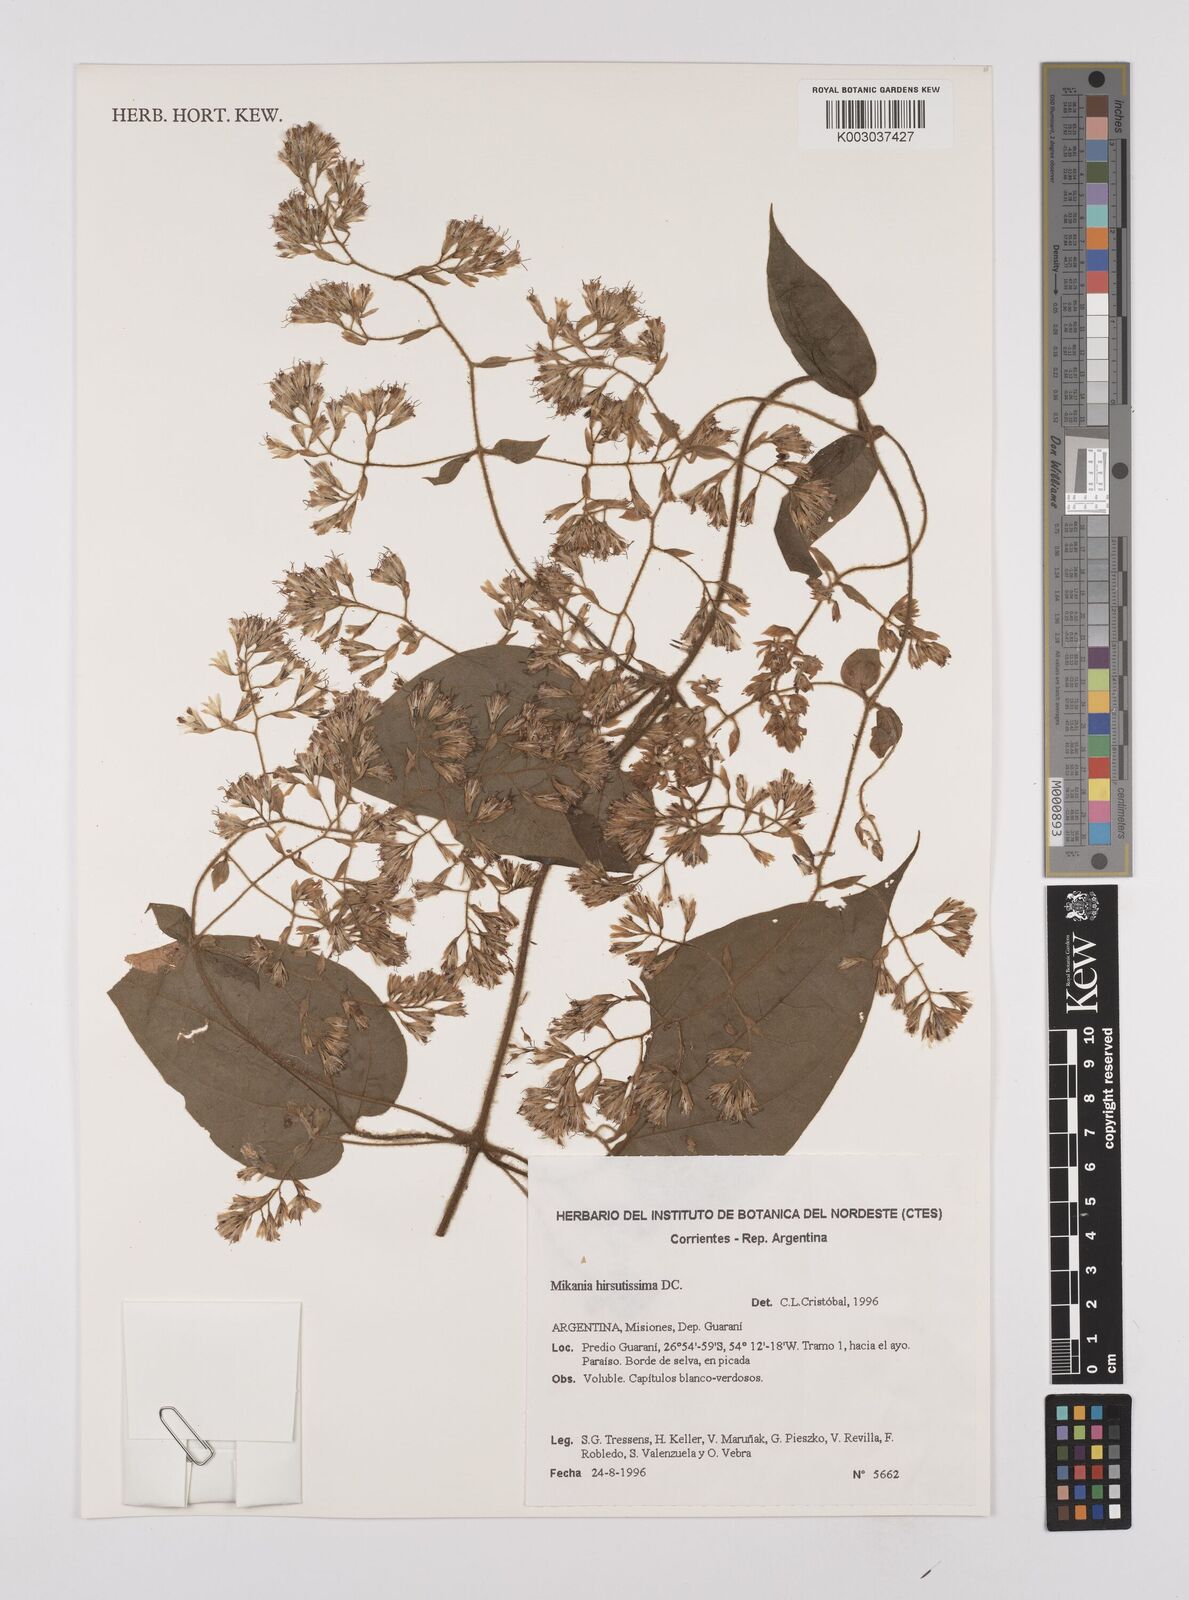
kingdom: Plantae
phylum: Tracheophyta
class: Magnoliopsida
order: Asterales
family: Asteraceae
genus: Mikania
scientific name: Mikania banisteriae
